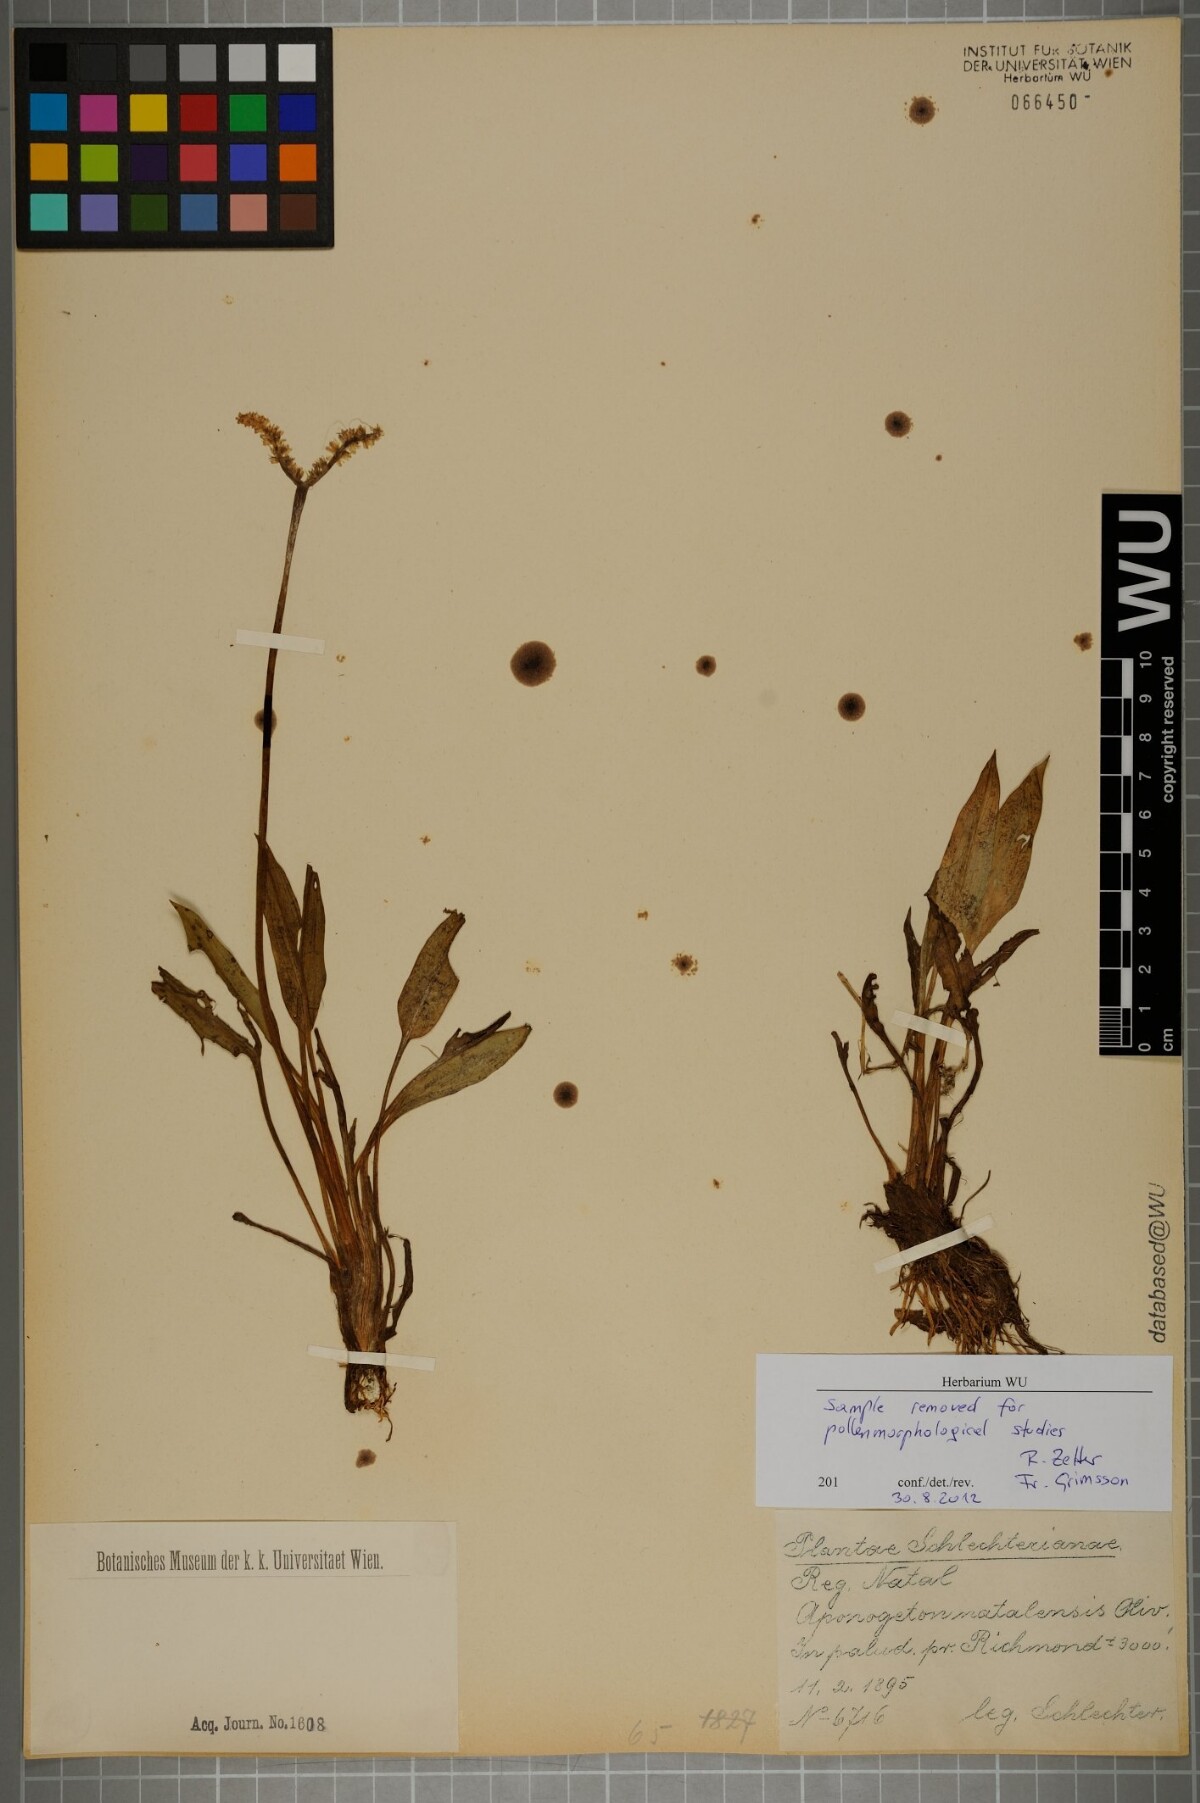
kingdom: Plantae
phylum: Tracheophyta
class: Liliopsida
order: Alismatales
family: Aponogetonaceae
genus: Aponogeton
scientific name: Aponogeton natalensis
